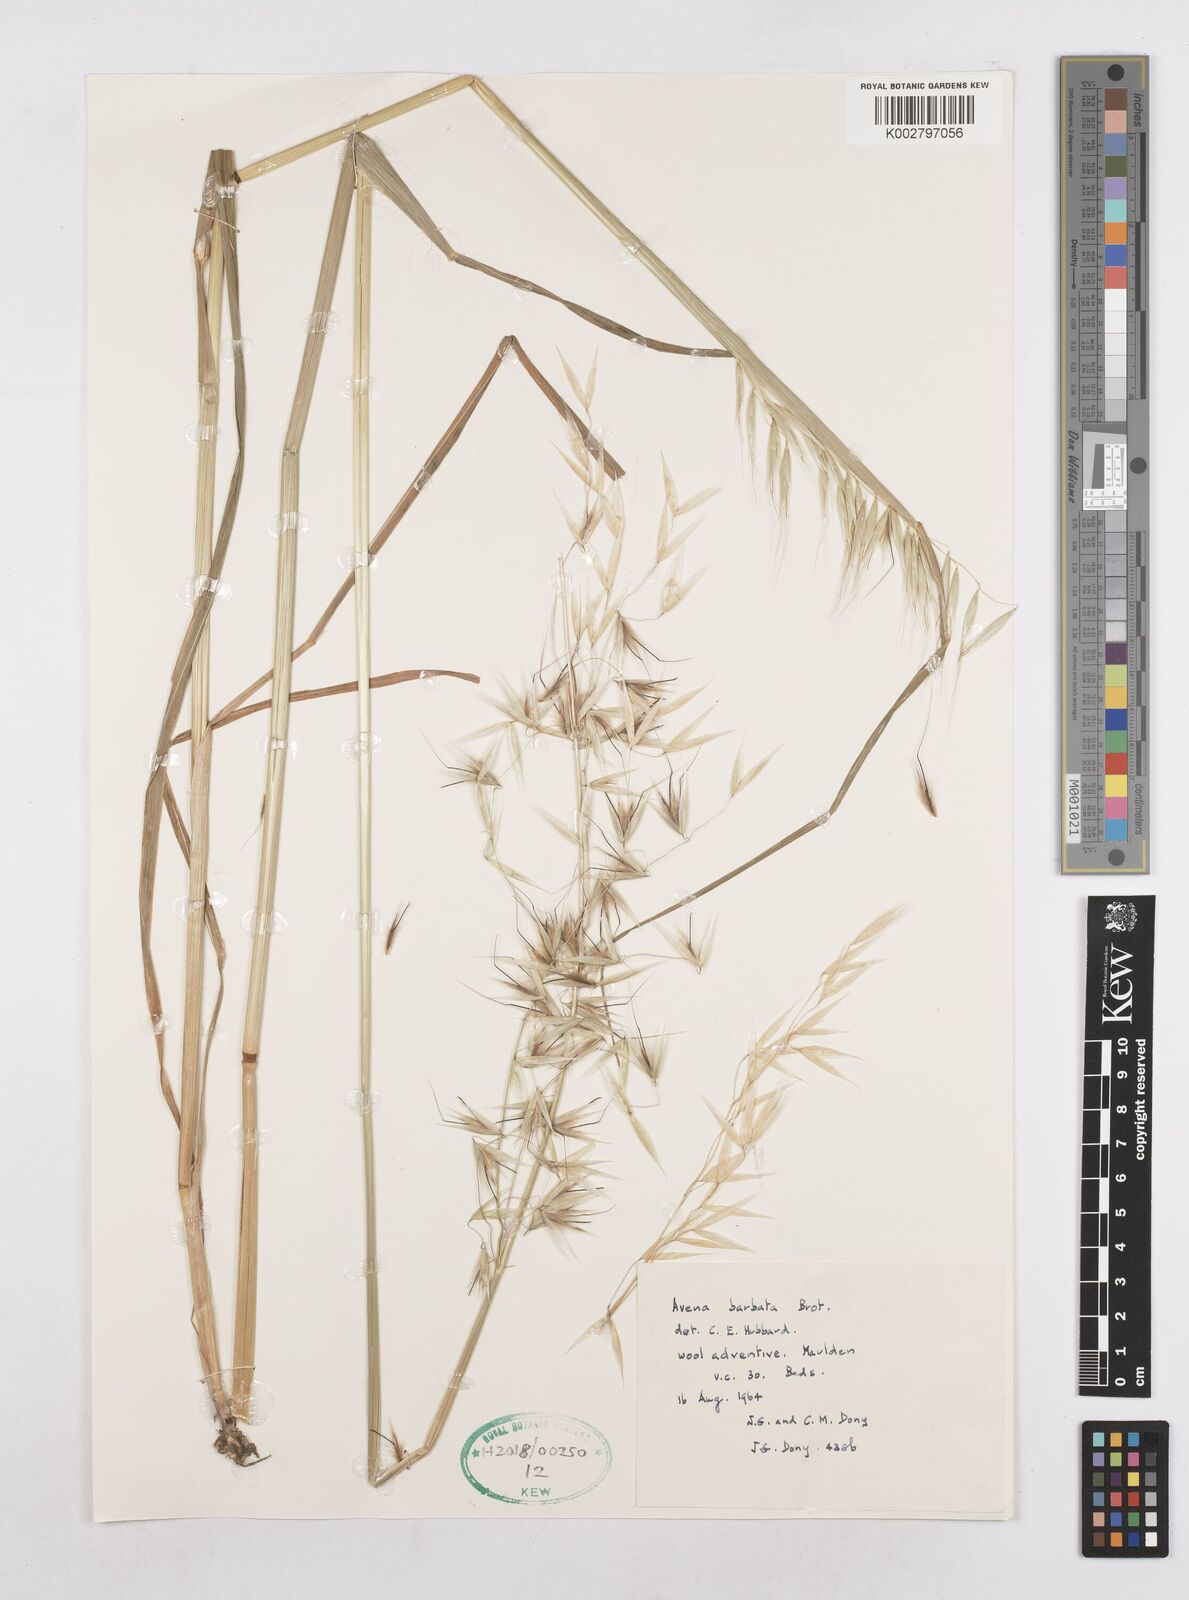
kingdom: Plantae
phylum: Tracheophyta
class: Liliopsida
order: Poales
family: Poaceae
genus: Avena
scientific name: Avena
